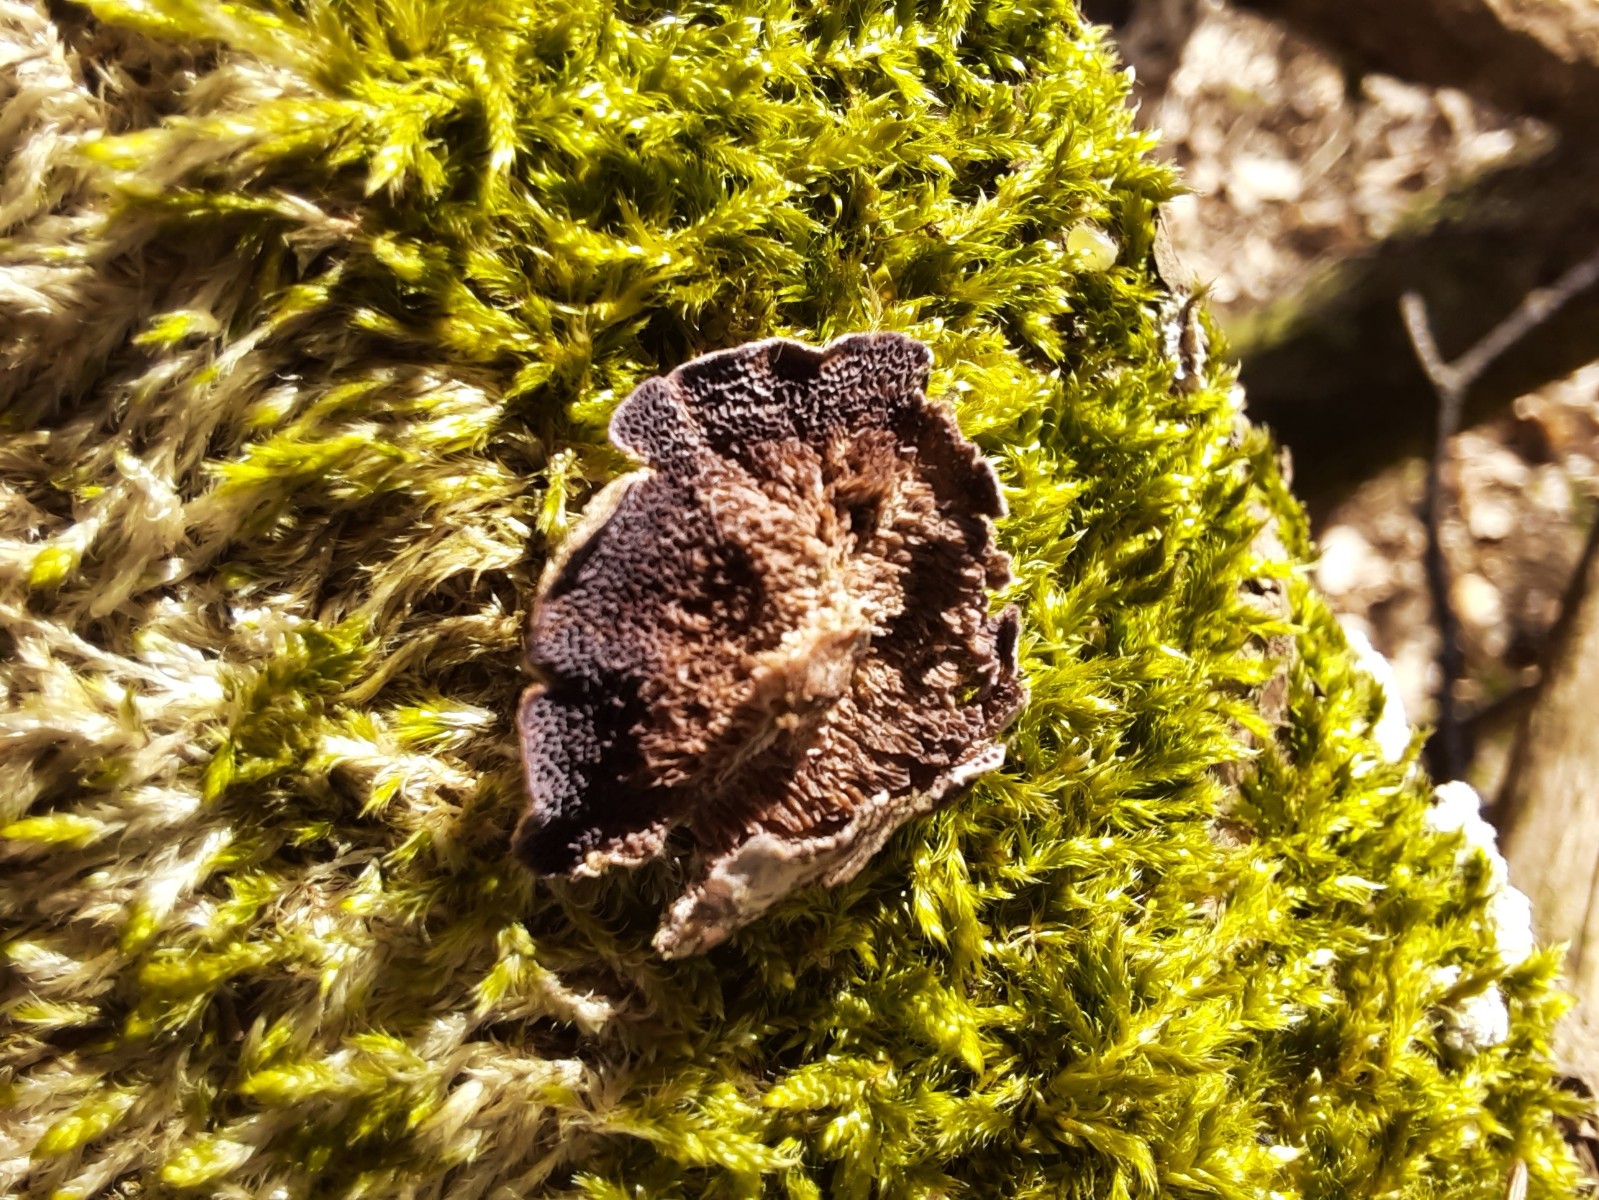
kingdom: Fungi
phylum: Basidiomycota
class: Agaricomycetes
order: Hymenochaetales
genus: Trichaptum
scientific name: Trichaptum fuscoviolaceum
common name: tandet violporesvamp
